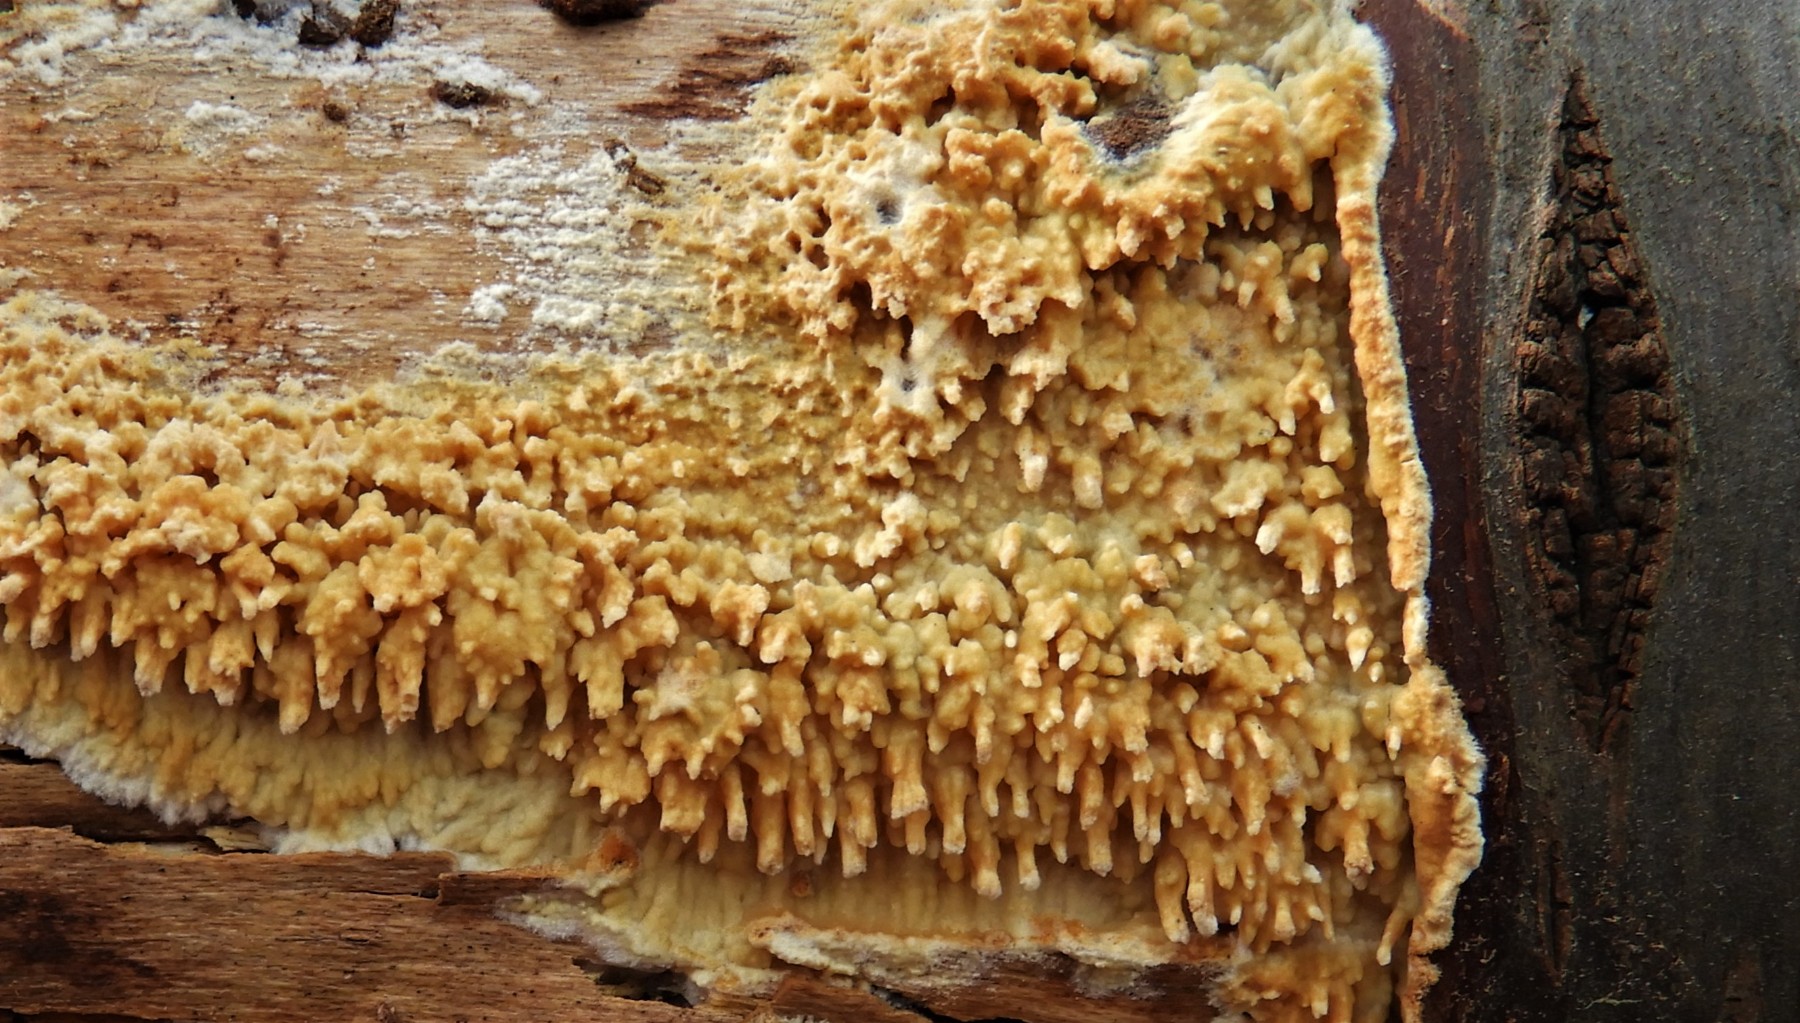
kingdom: Fungi
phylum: Basidiomycota
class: Agaricomycetes
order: Hymenochaetales
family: Schizoporaceae
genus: Xylodon
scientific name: Xylodon radula
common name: grovtandet kalkskind
